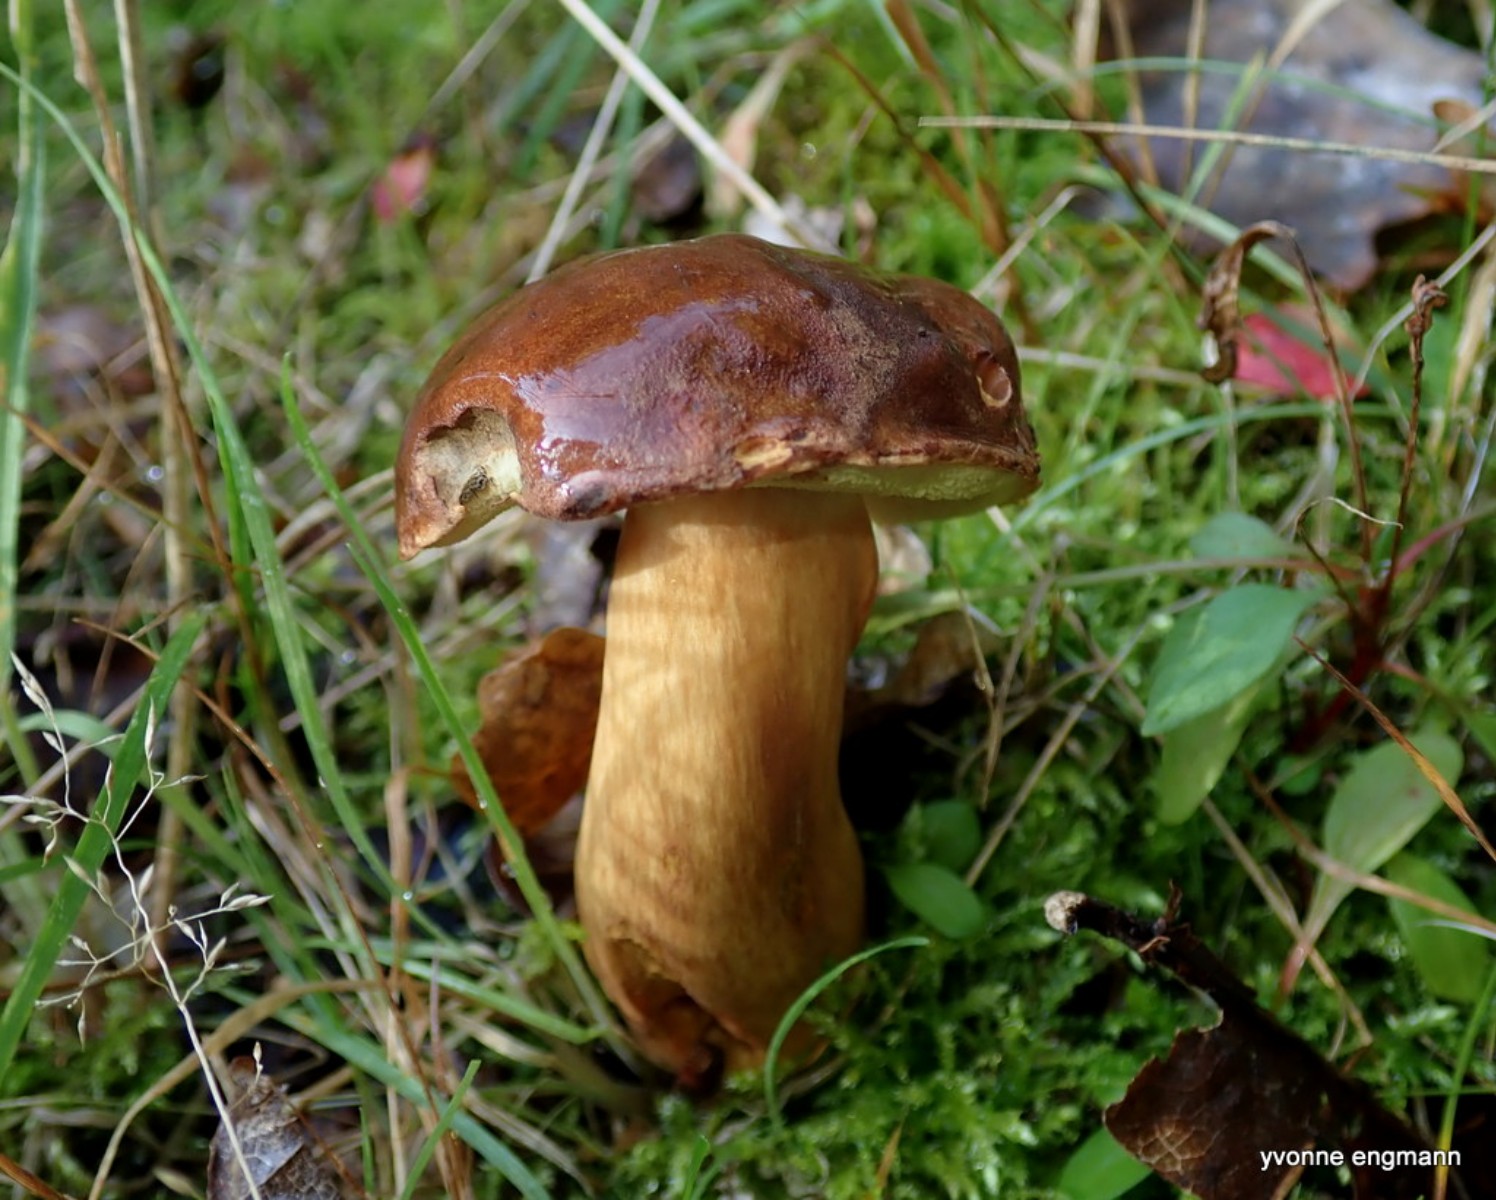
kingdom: Fungi
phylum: Basidiomycota
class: Agaricomycetes
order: Boletales
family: Boletaceae
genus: Imleria
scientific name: Imleria badia
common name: brunstokket rørhat
